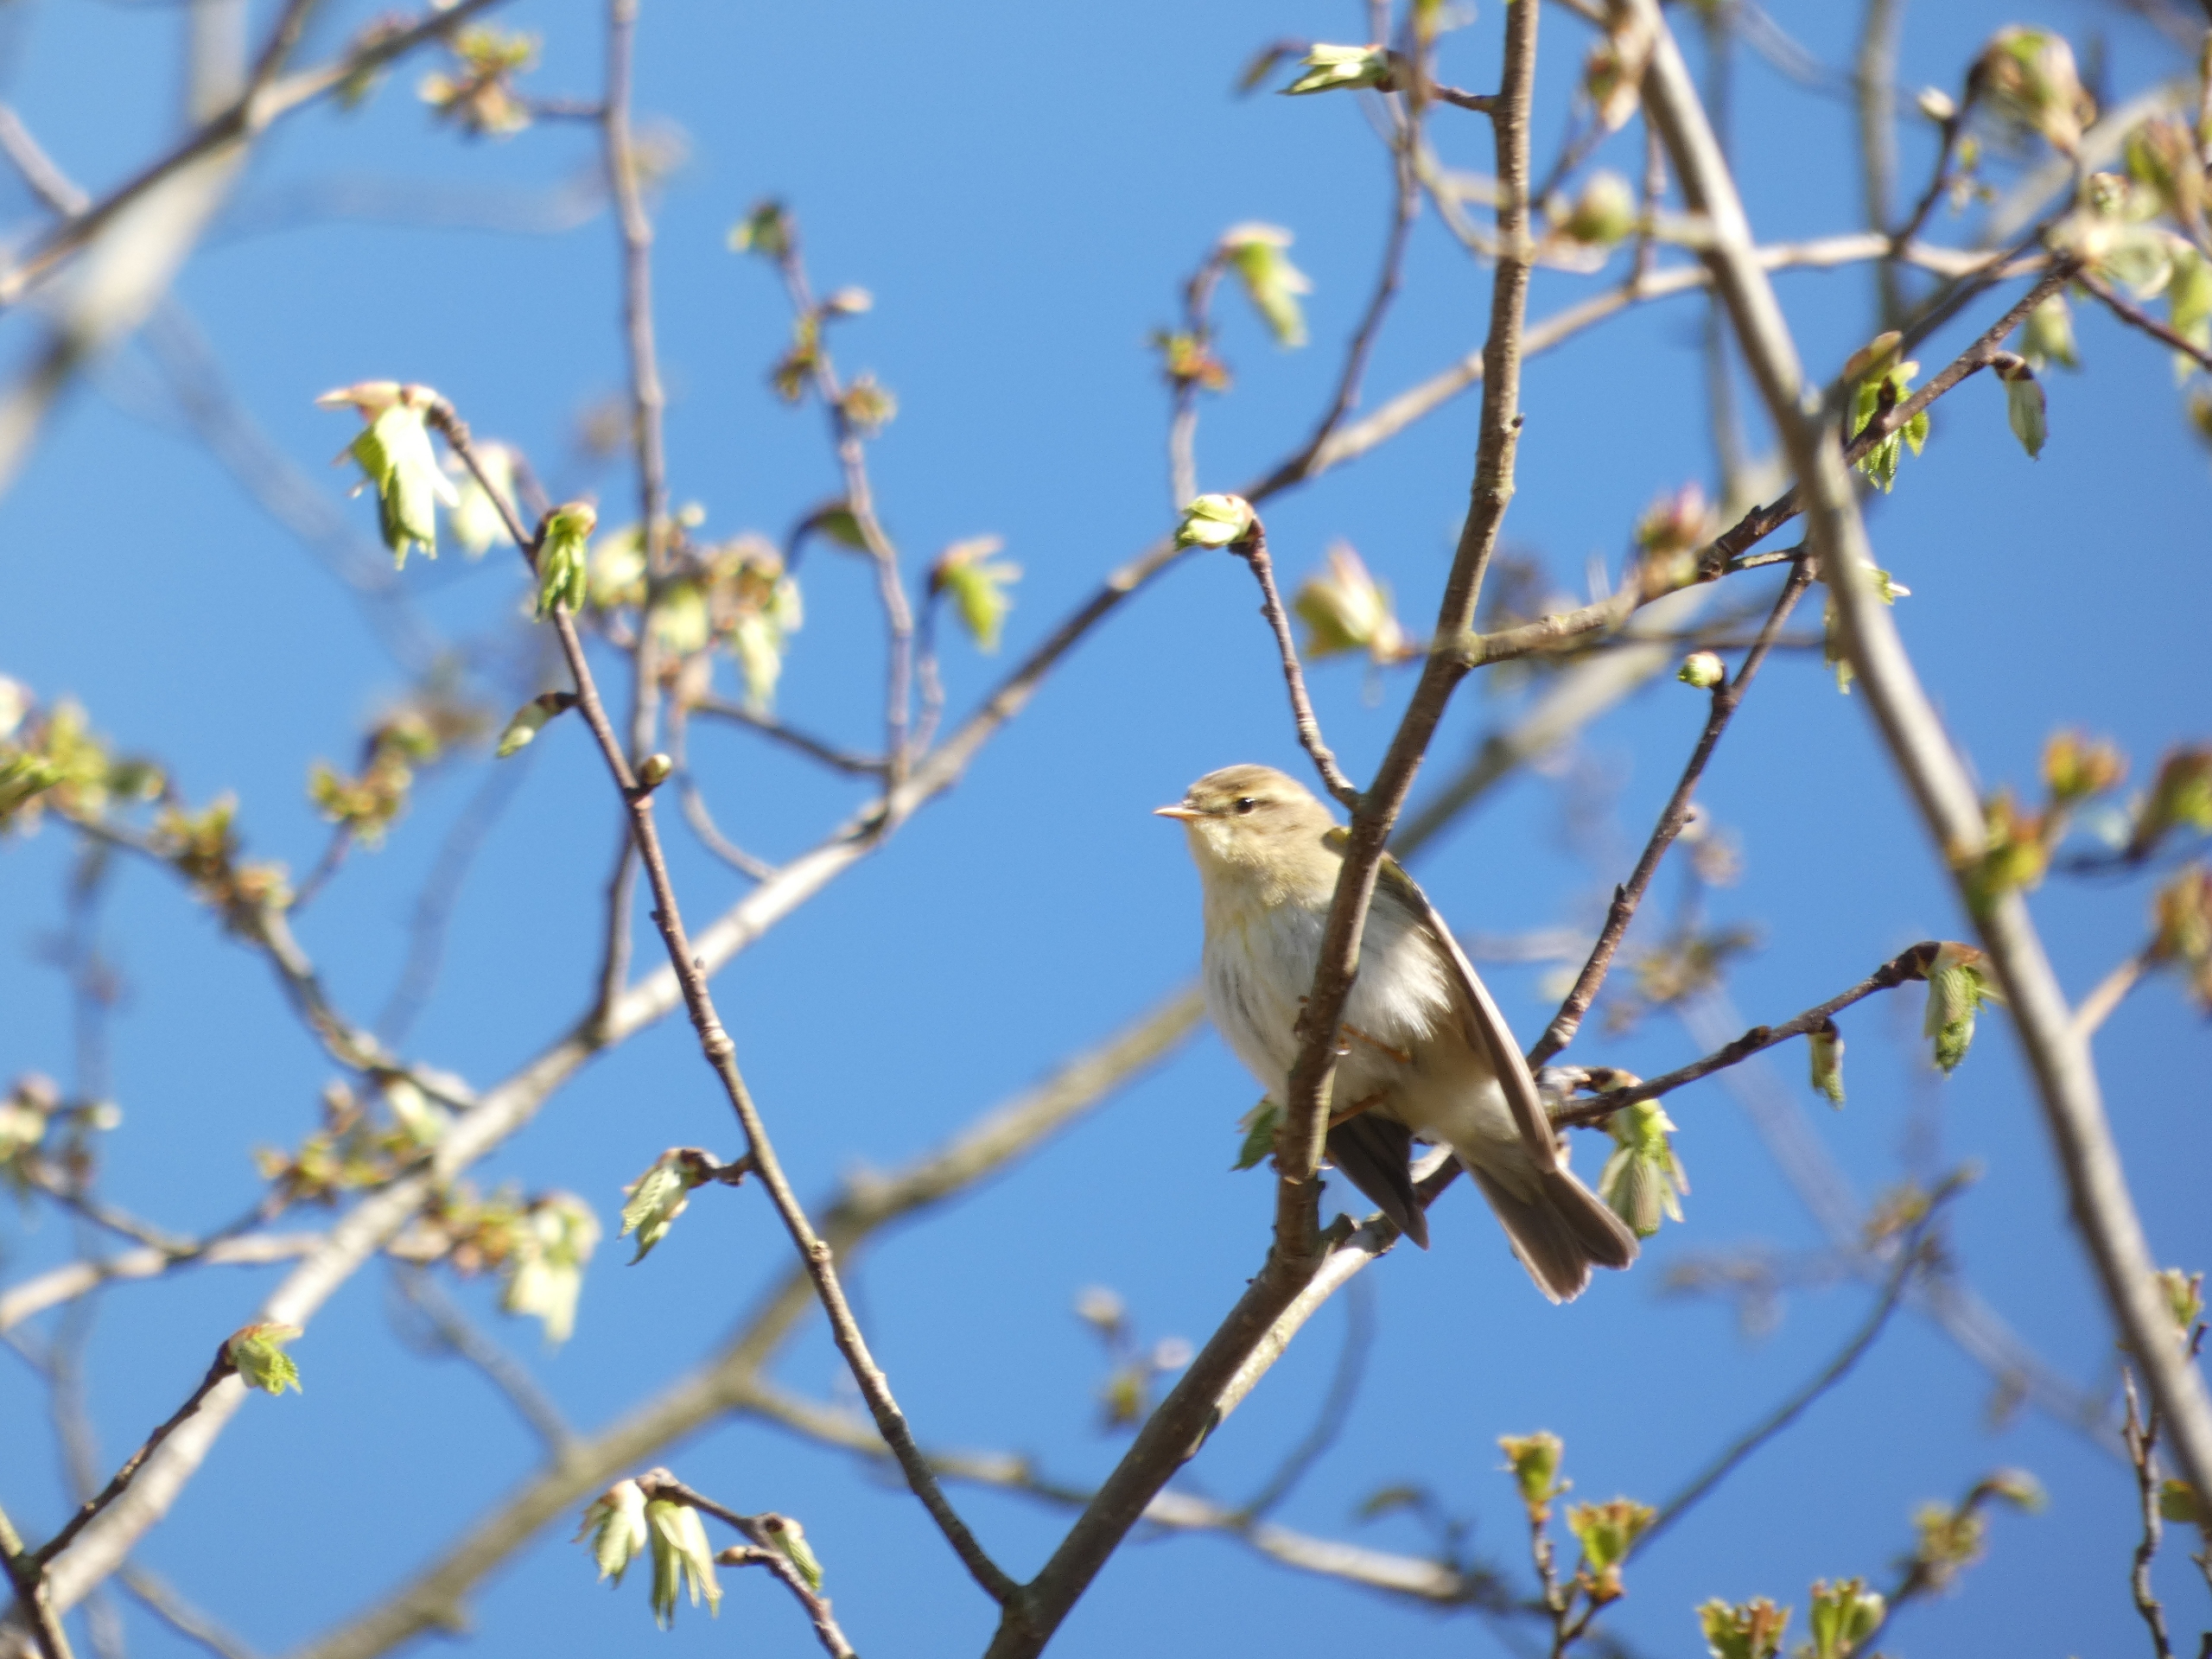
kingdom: Animalia
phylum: Chordata
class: Aves
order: Passeriformes
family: Phylloscopidae
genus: Phylloscopus
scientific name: Phylloscopus trochilus
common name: Løvsanger
